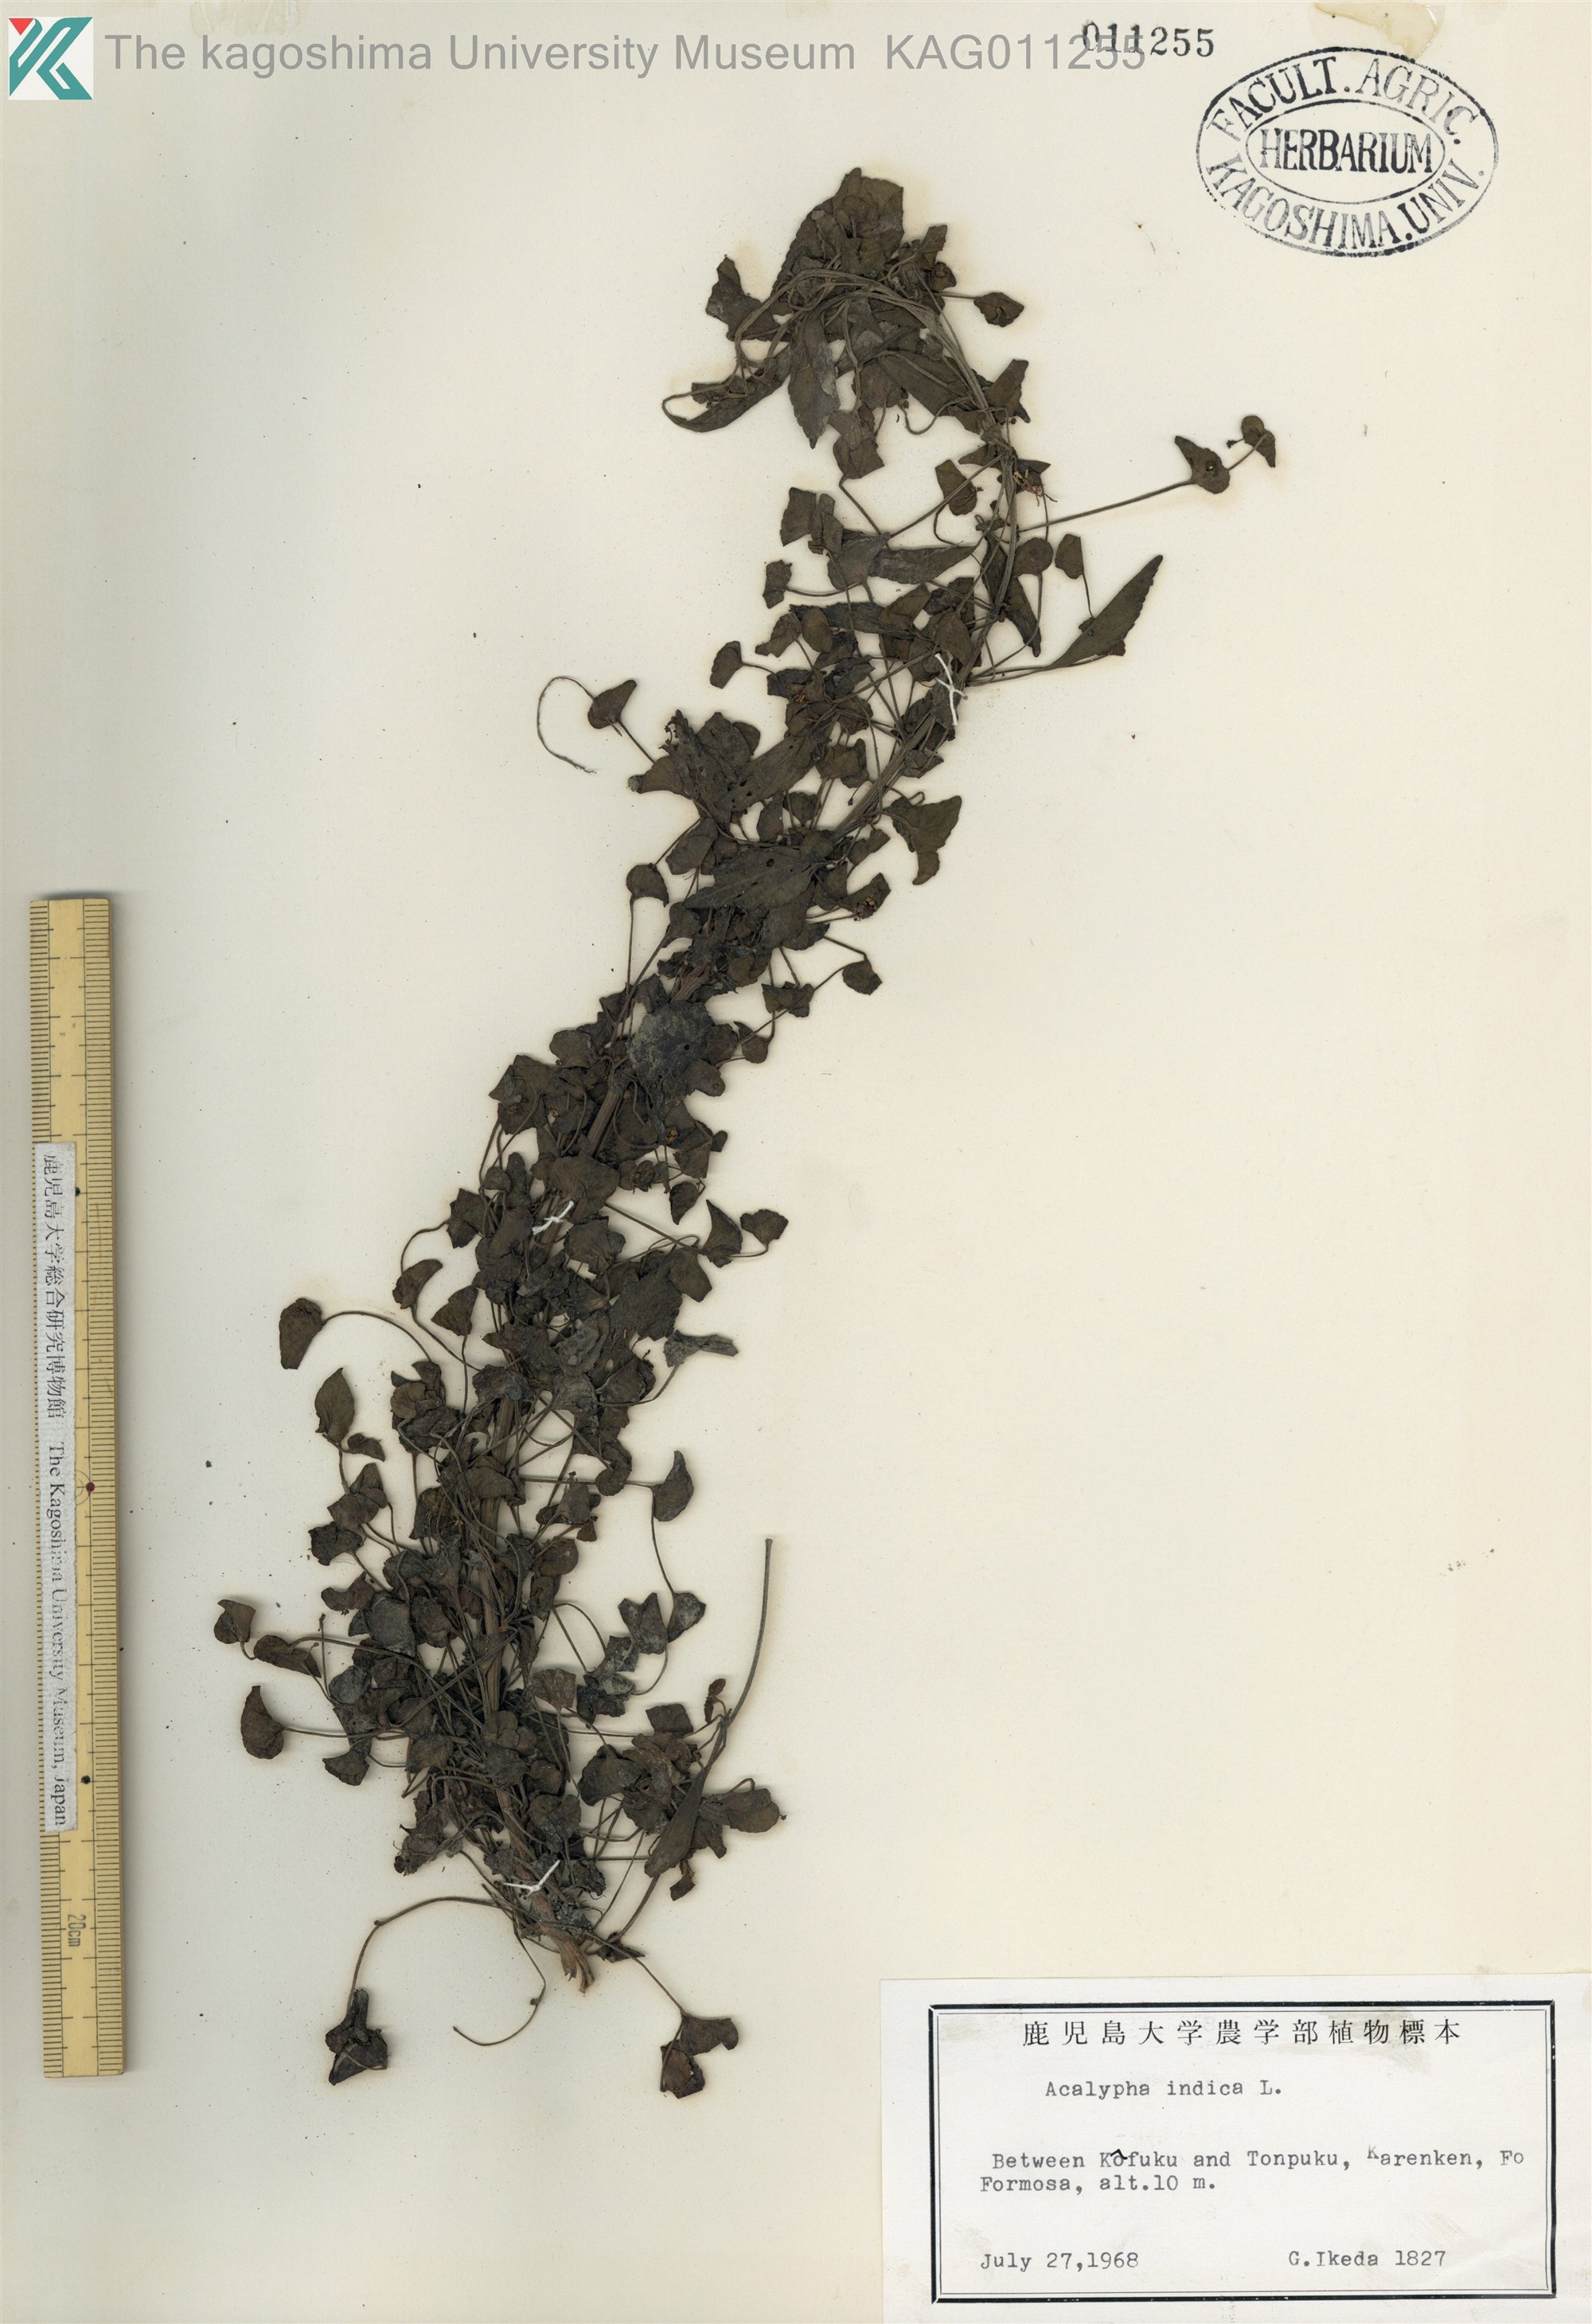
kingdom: Plantae
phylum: Tracheophyta
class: Magnoliopsida
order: Malpighiales
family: Euphorbiaceae
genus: Acalypha
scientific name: Acalypha indica
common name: Indian acalypha
